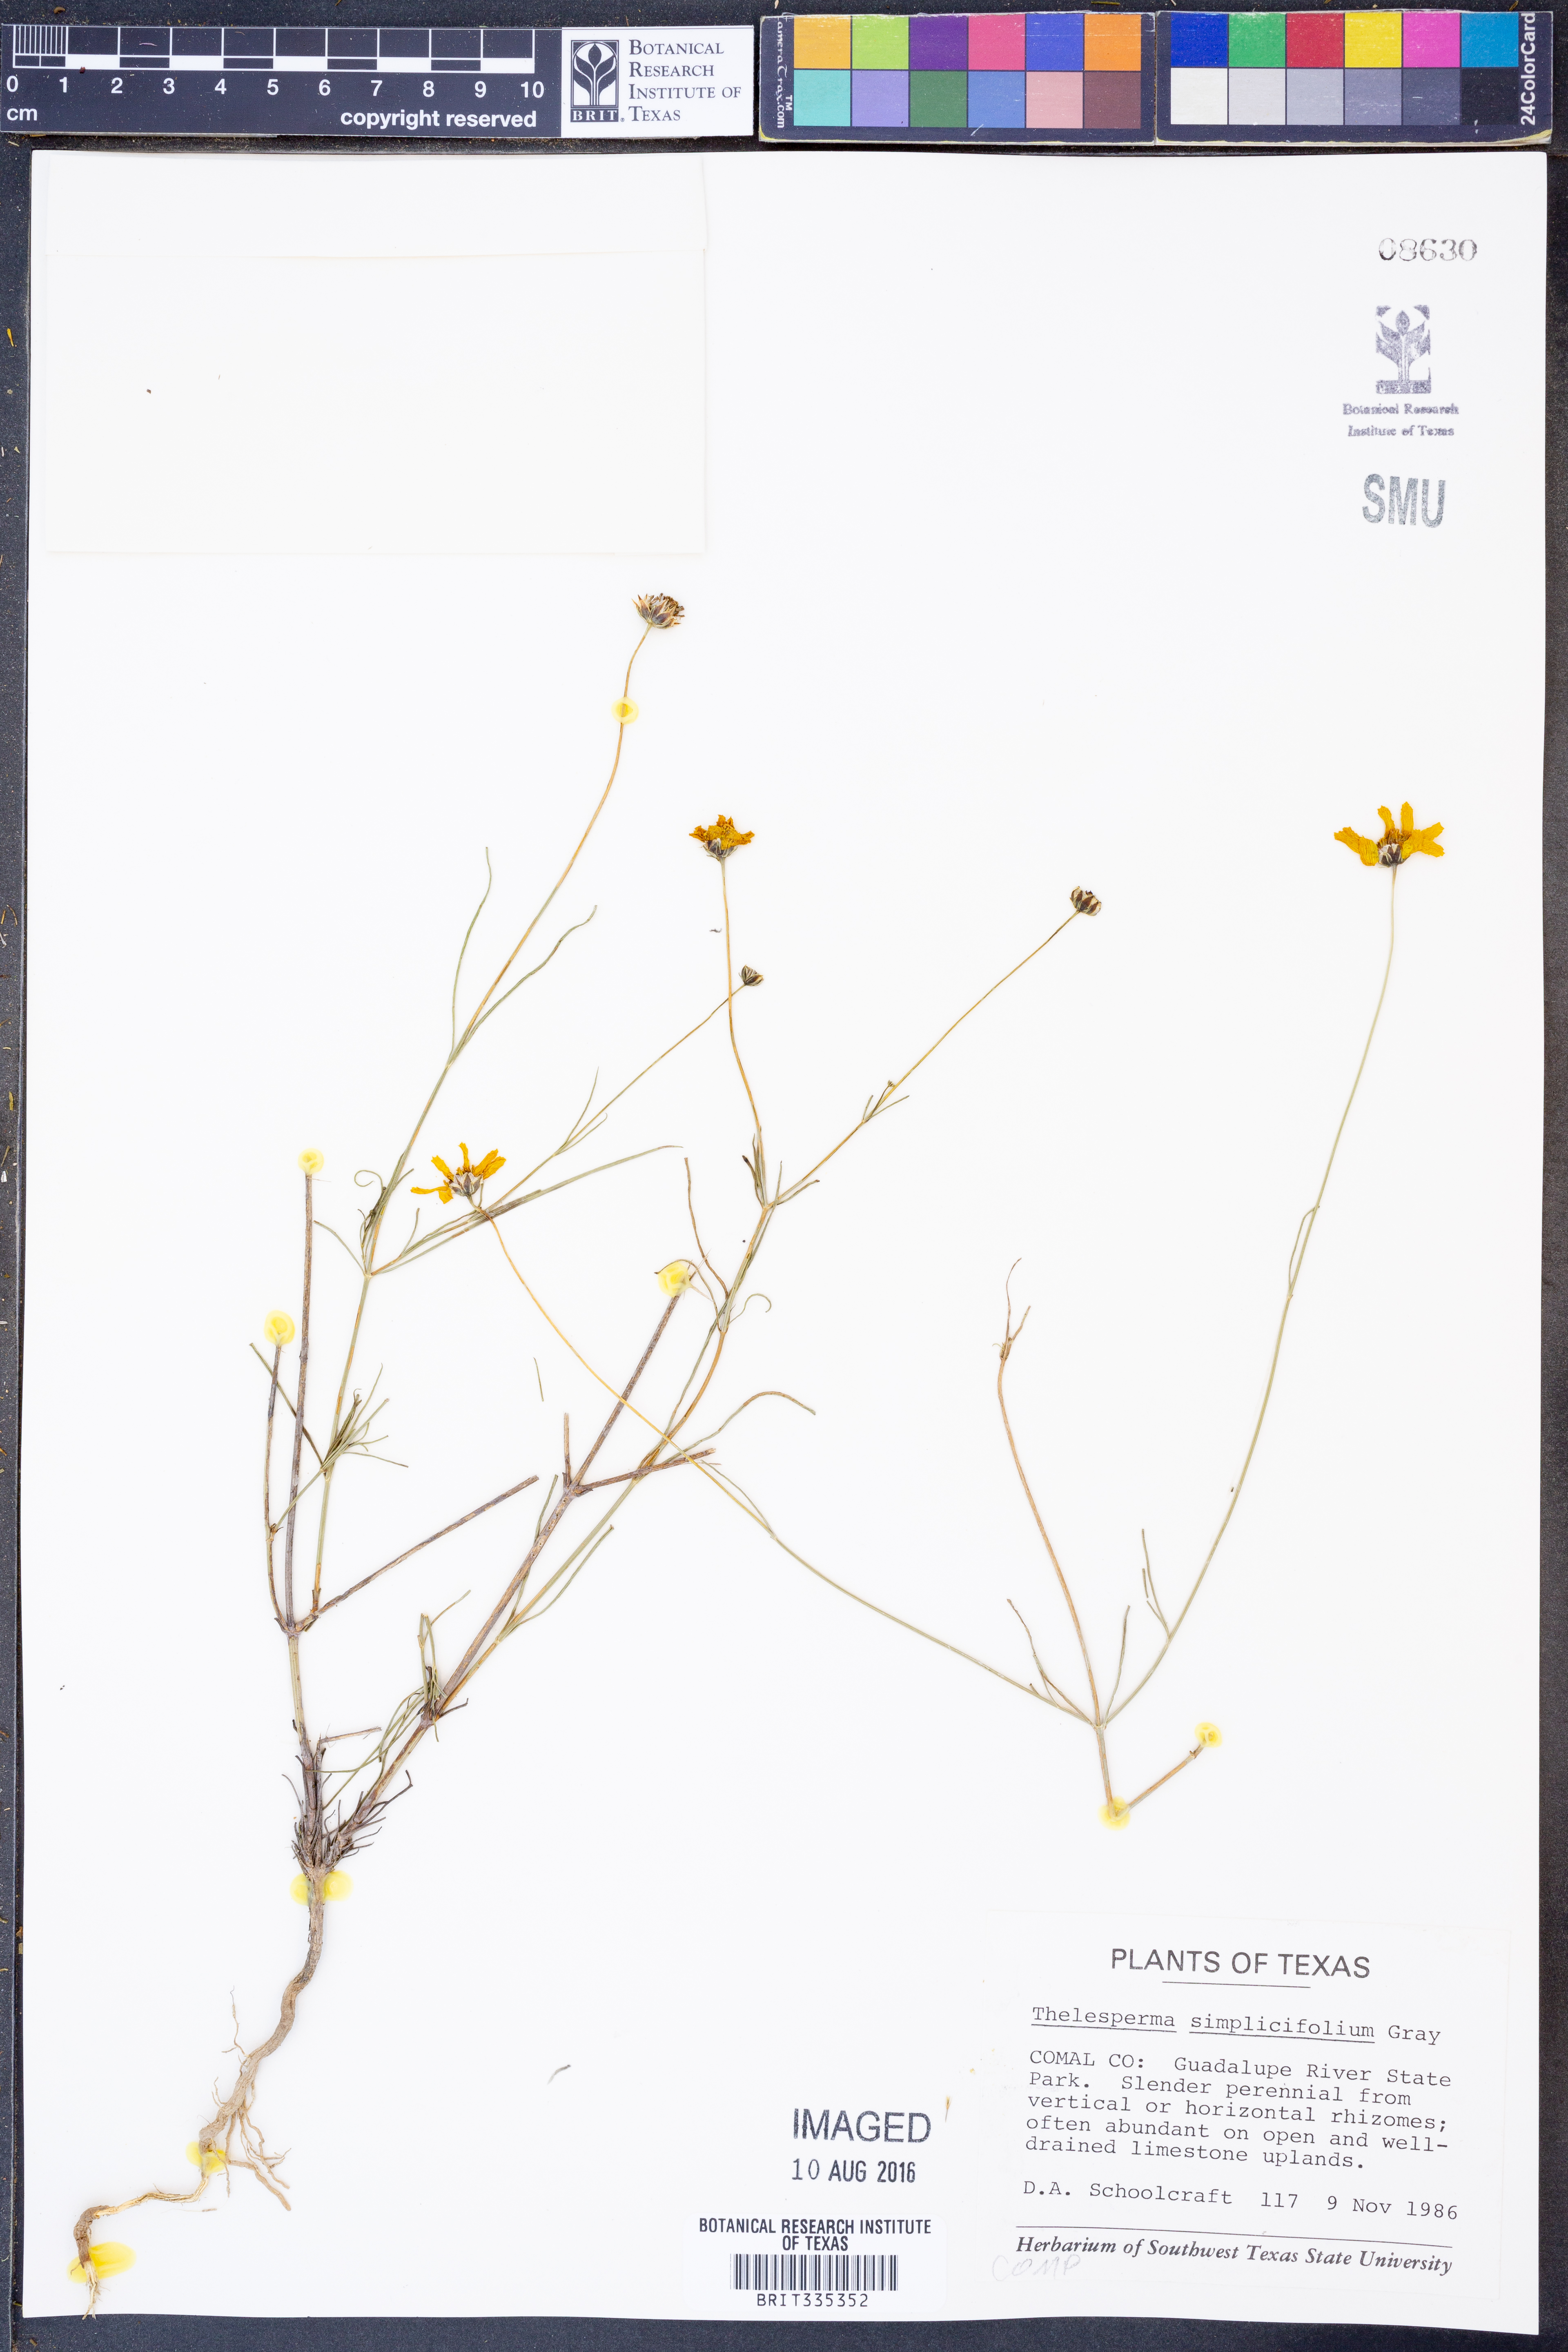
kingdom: Plantae
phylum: Tracheophyta
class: Magnoliopsida
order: Asterales
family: Asteraceae
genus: Thelesperma
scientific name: Thelesperma simplicifolium
